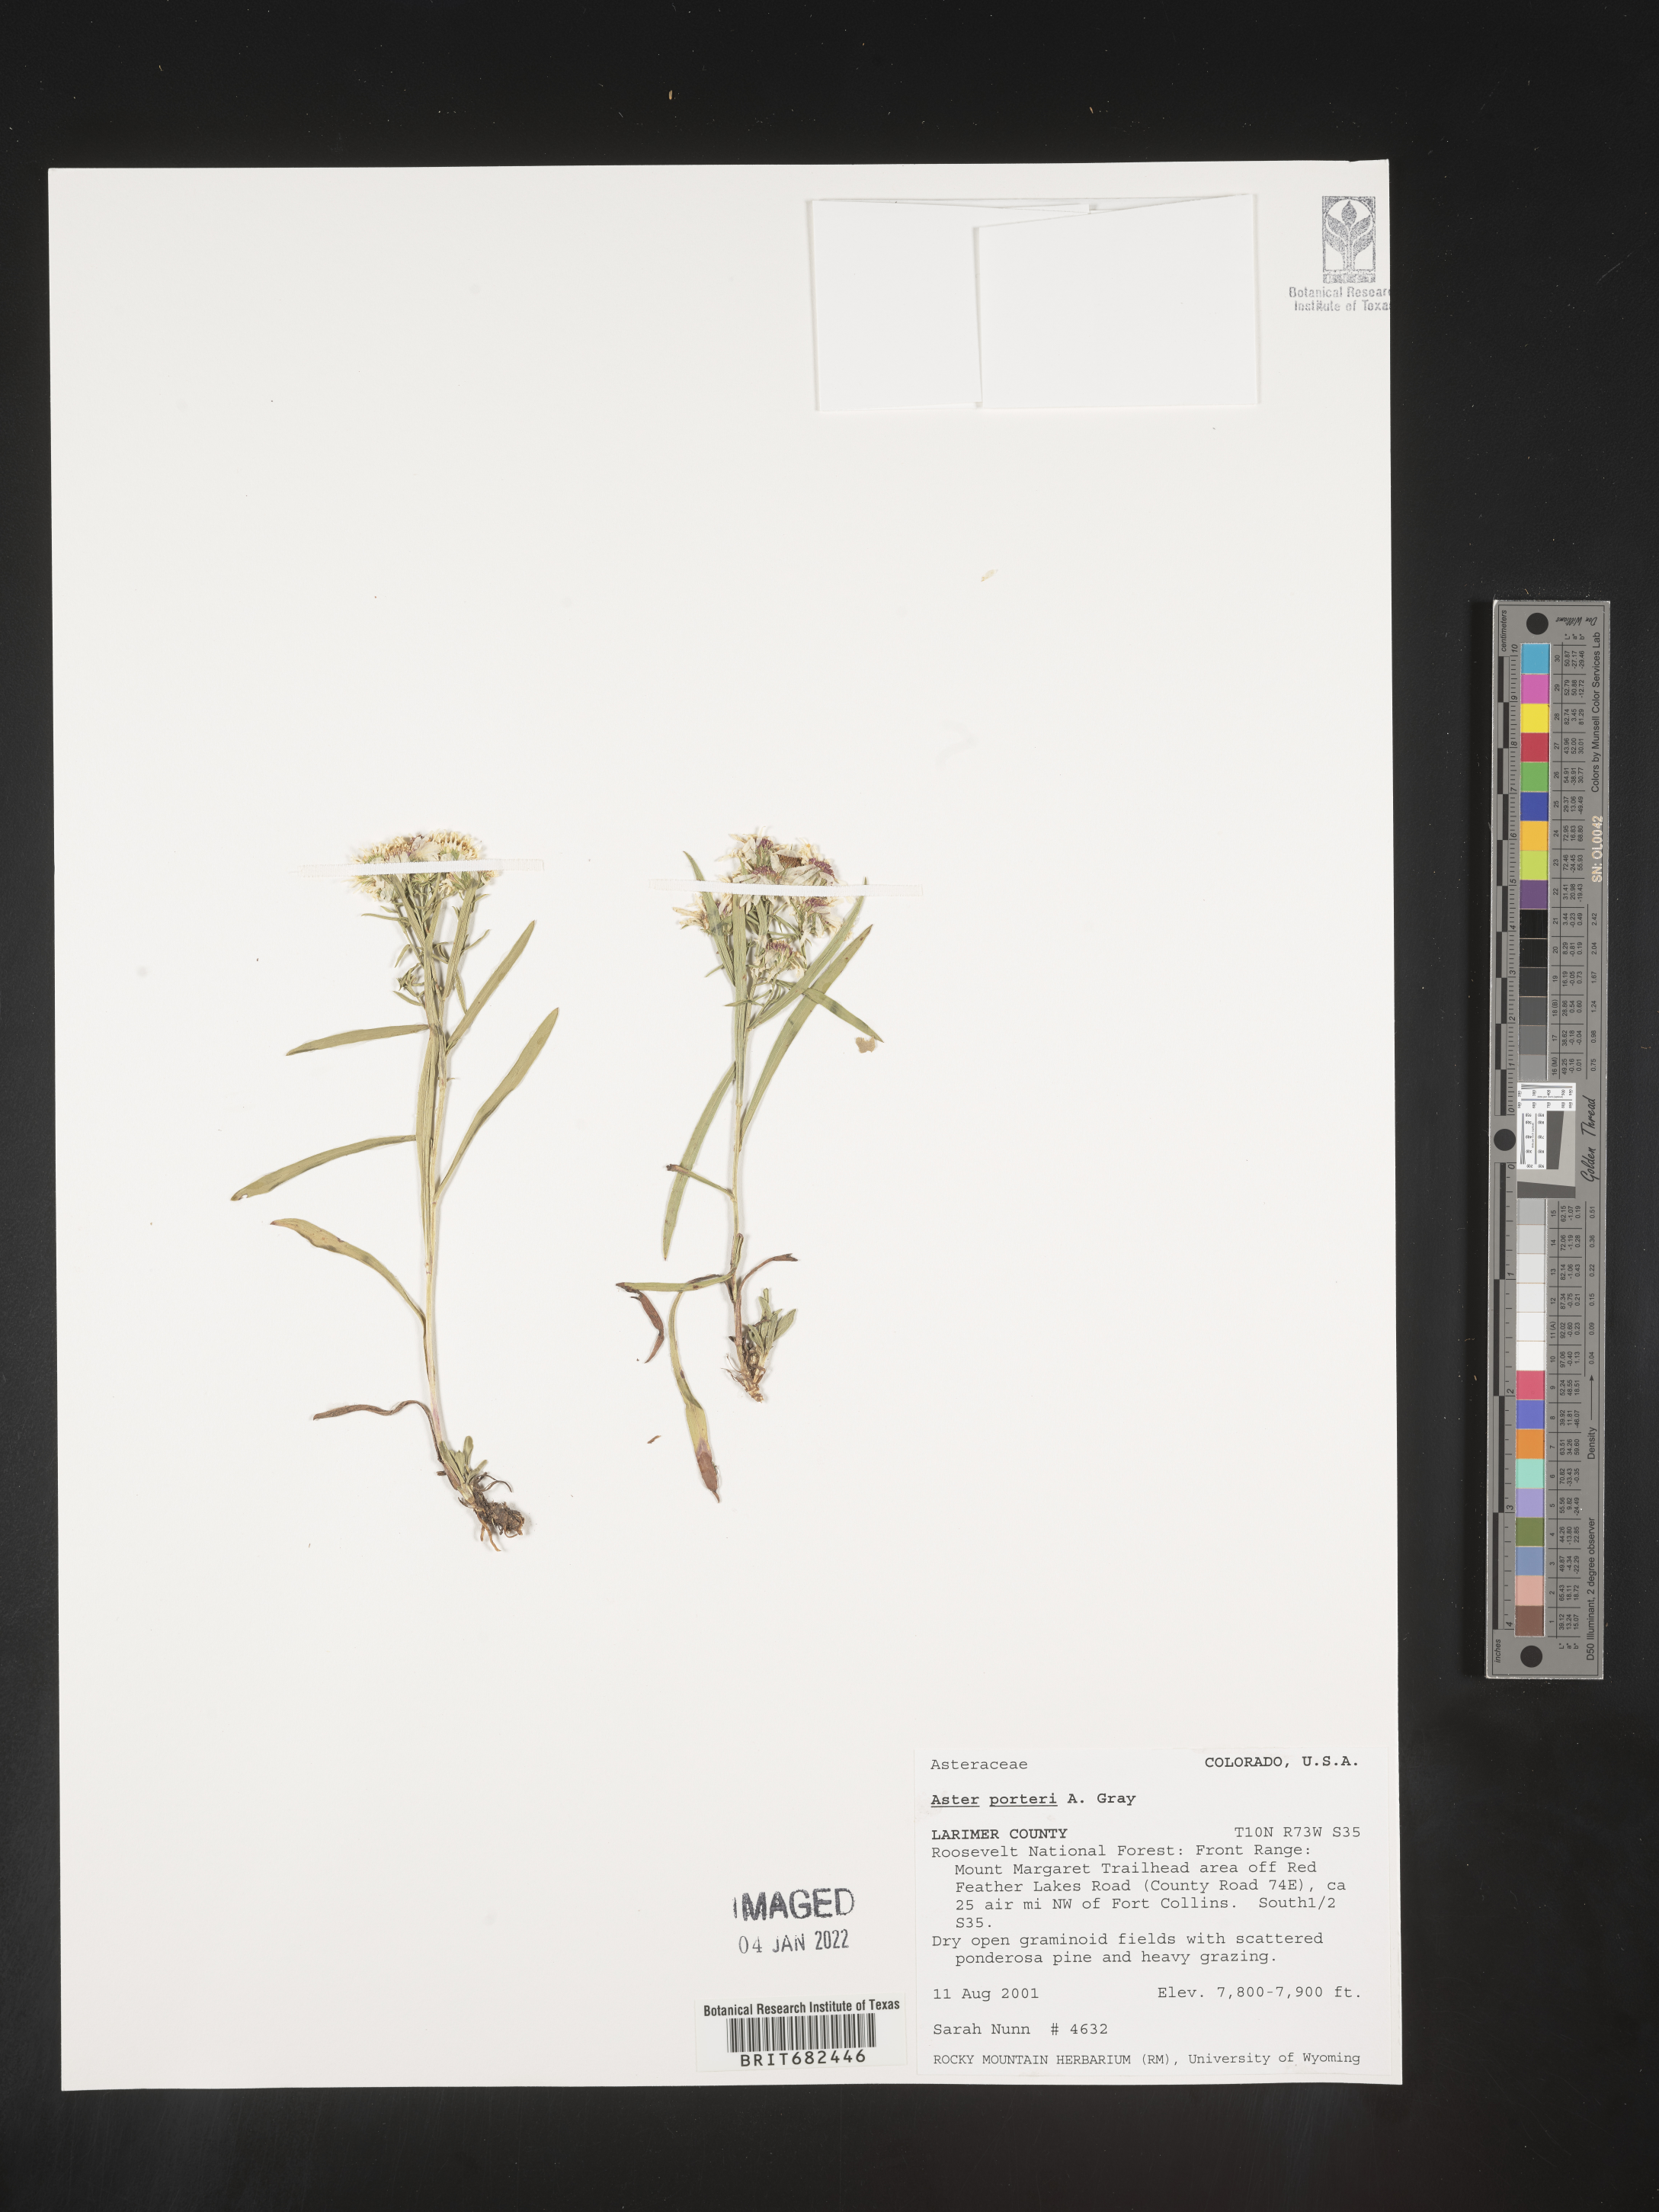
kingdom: Plantae
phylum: Tracheophyta
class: Magnoliopsida
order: Asterales
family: Asteraceae
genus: Aster
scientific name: Aster
